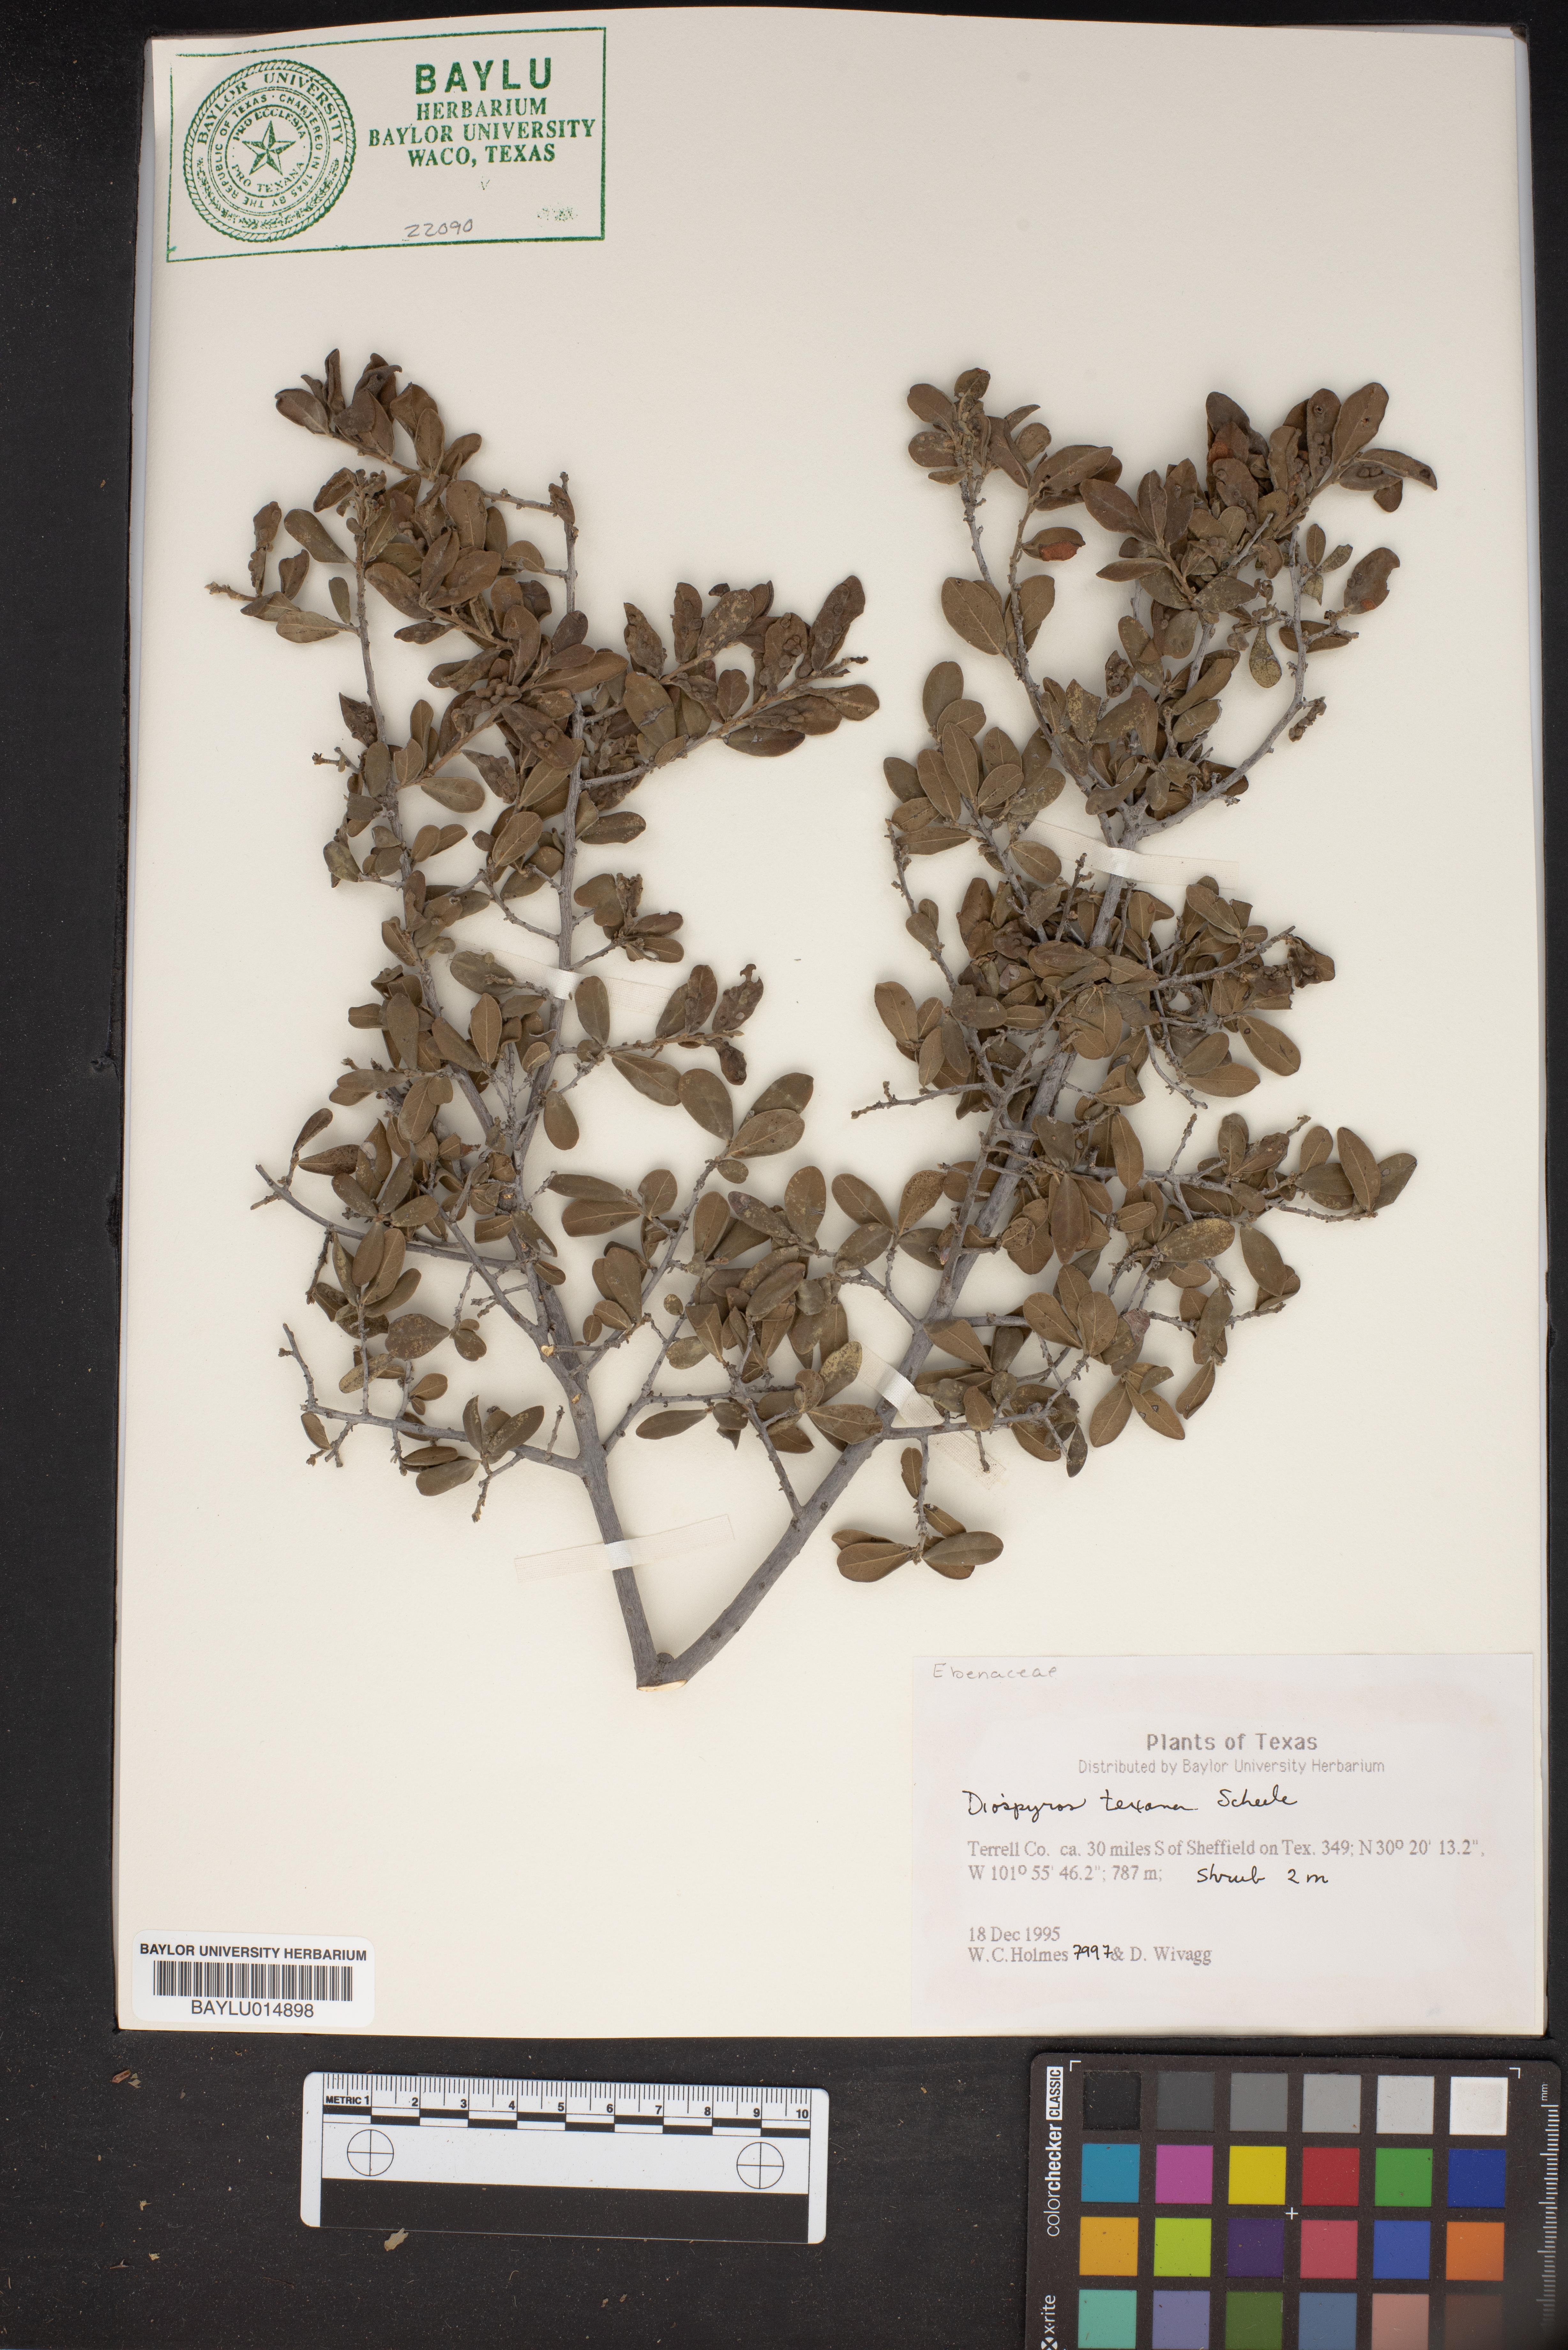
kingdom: Plantae
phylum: Tracheophyta
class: Magnoliopsida
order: Ericales
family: Ebenaceae
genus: Diospyros
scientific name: Diospyros texana
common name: Texas persimmon
